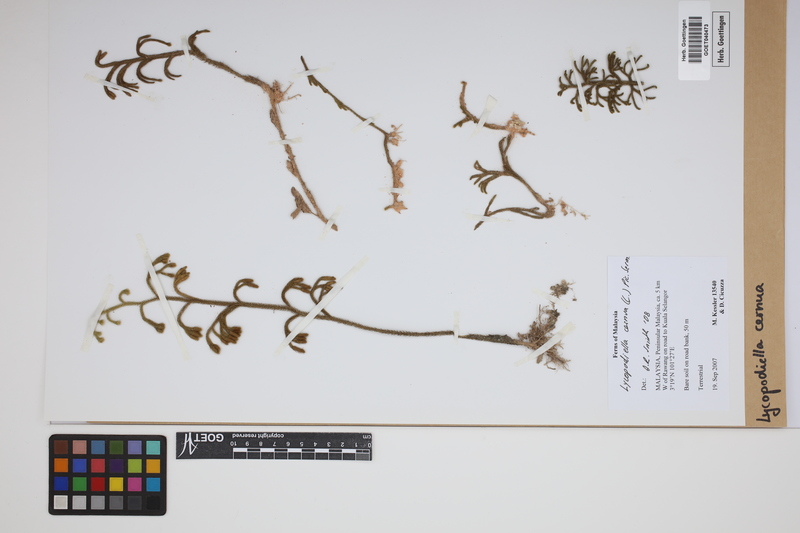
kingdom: Plantae
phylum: Tracheophyta
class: Lycopodiopsida
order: Lycopodiales
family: Lycopodiaceae
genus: Palhinhaea
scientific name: Palhinhaea cernua
